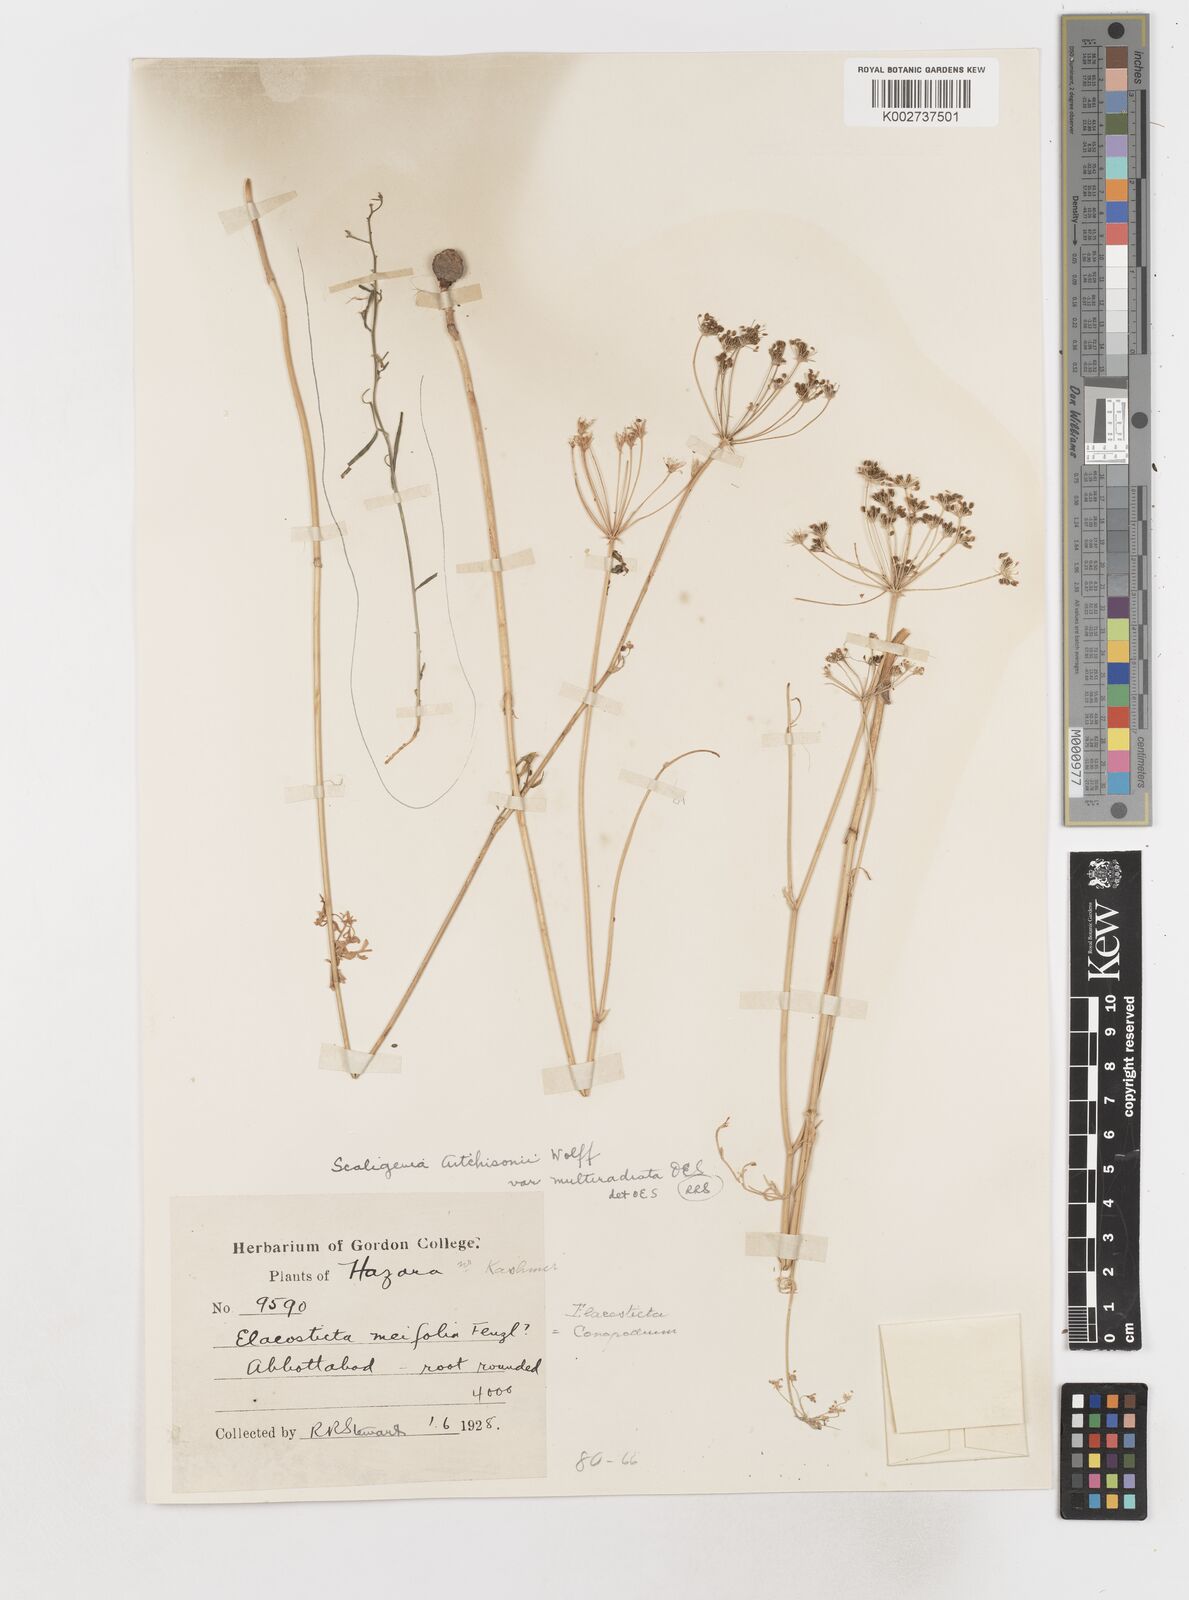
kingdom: Plantae
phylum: Tracheophyta
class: Magnoliopsida
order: Apiales
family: Apiaceae
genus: Scaligeria
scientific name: Scaligeria hirtula
